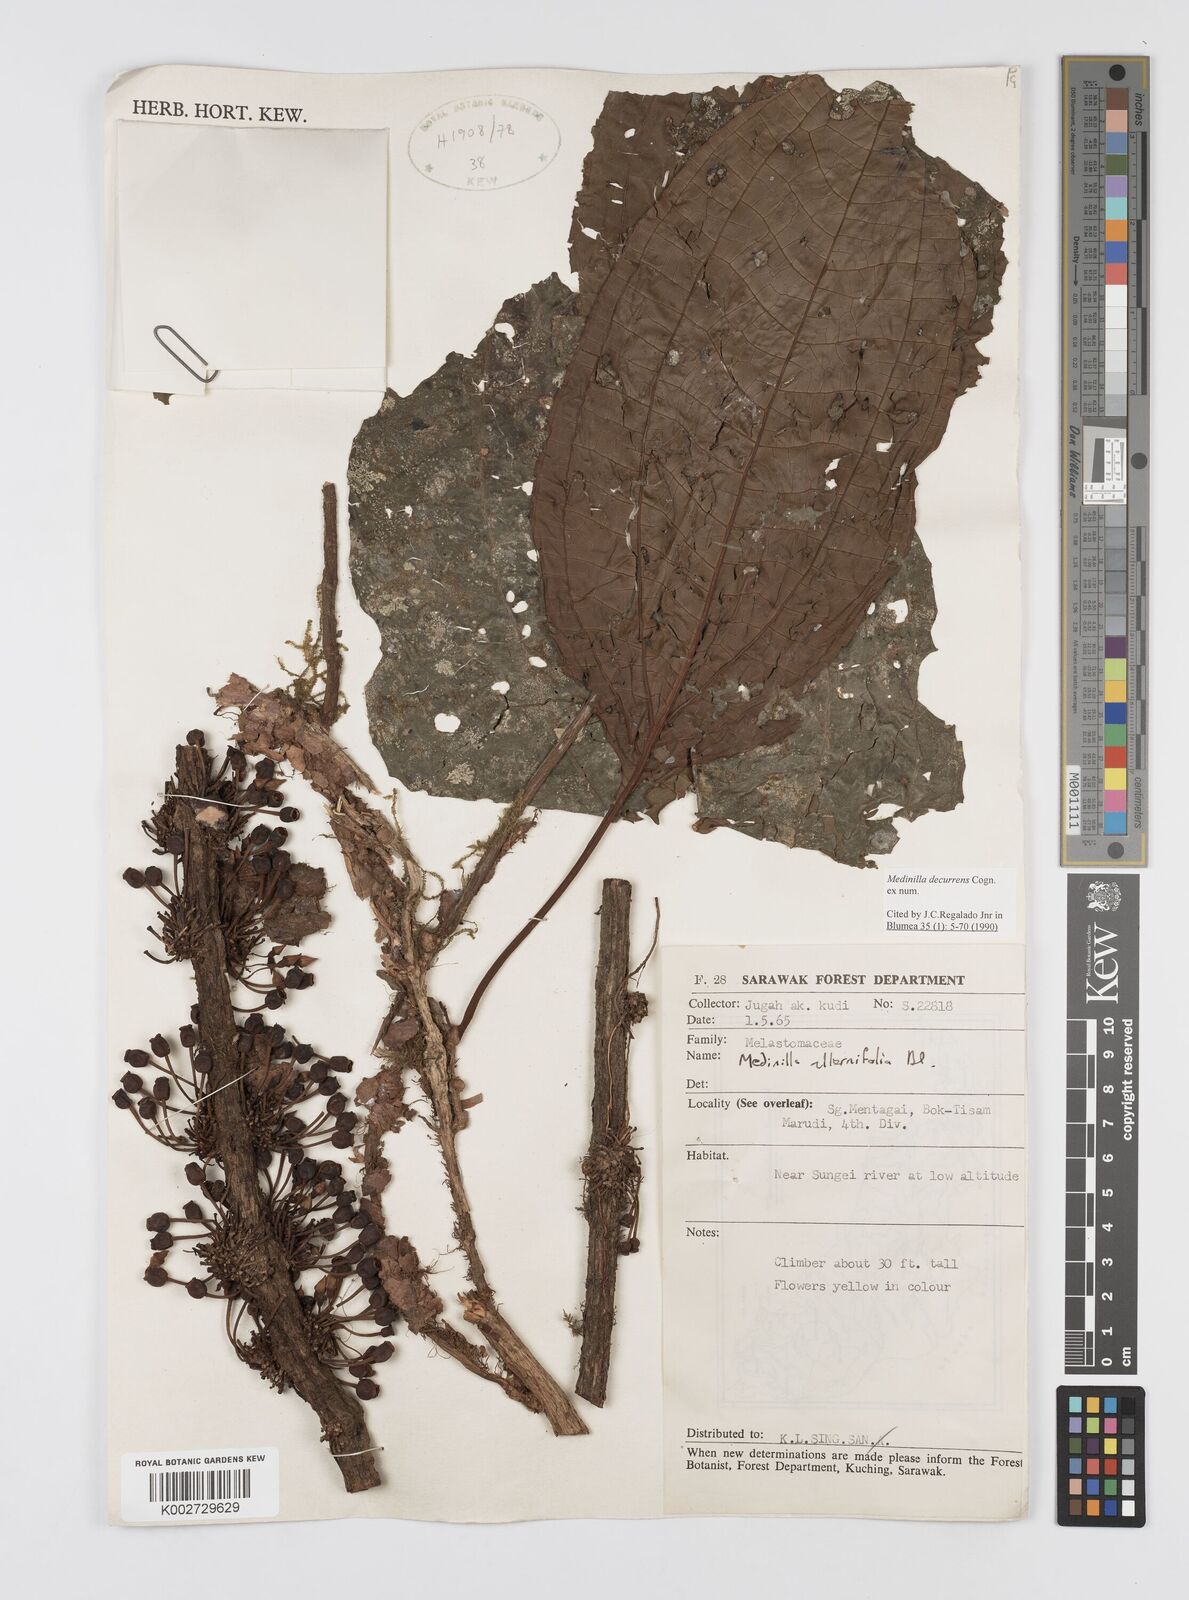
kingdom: Plantae
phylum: Tracheophyta
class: Magnoliopsida
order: Myrtales
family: Melastomataceae
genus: Heteroblemma
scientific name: Heteroblemma decurrens
